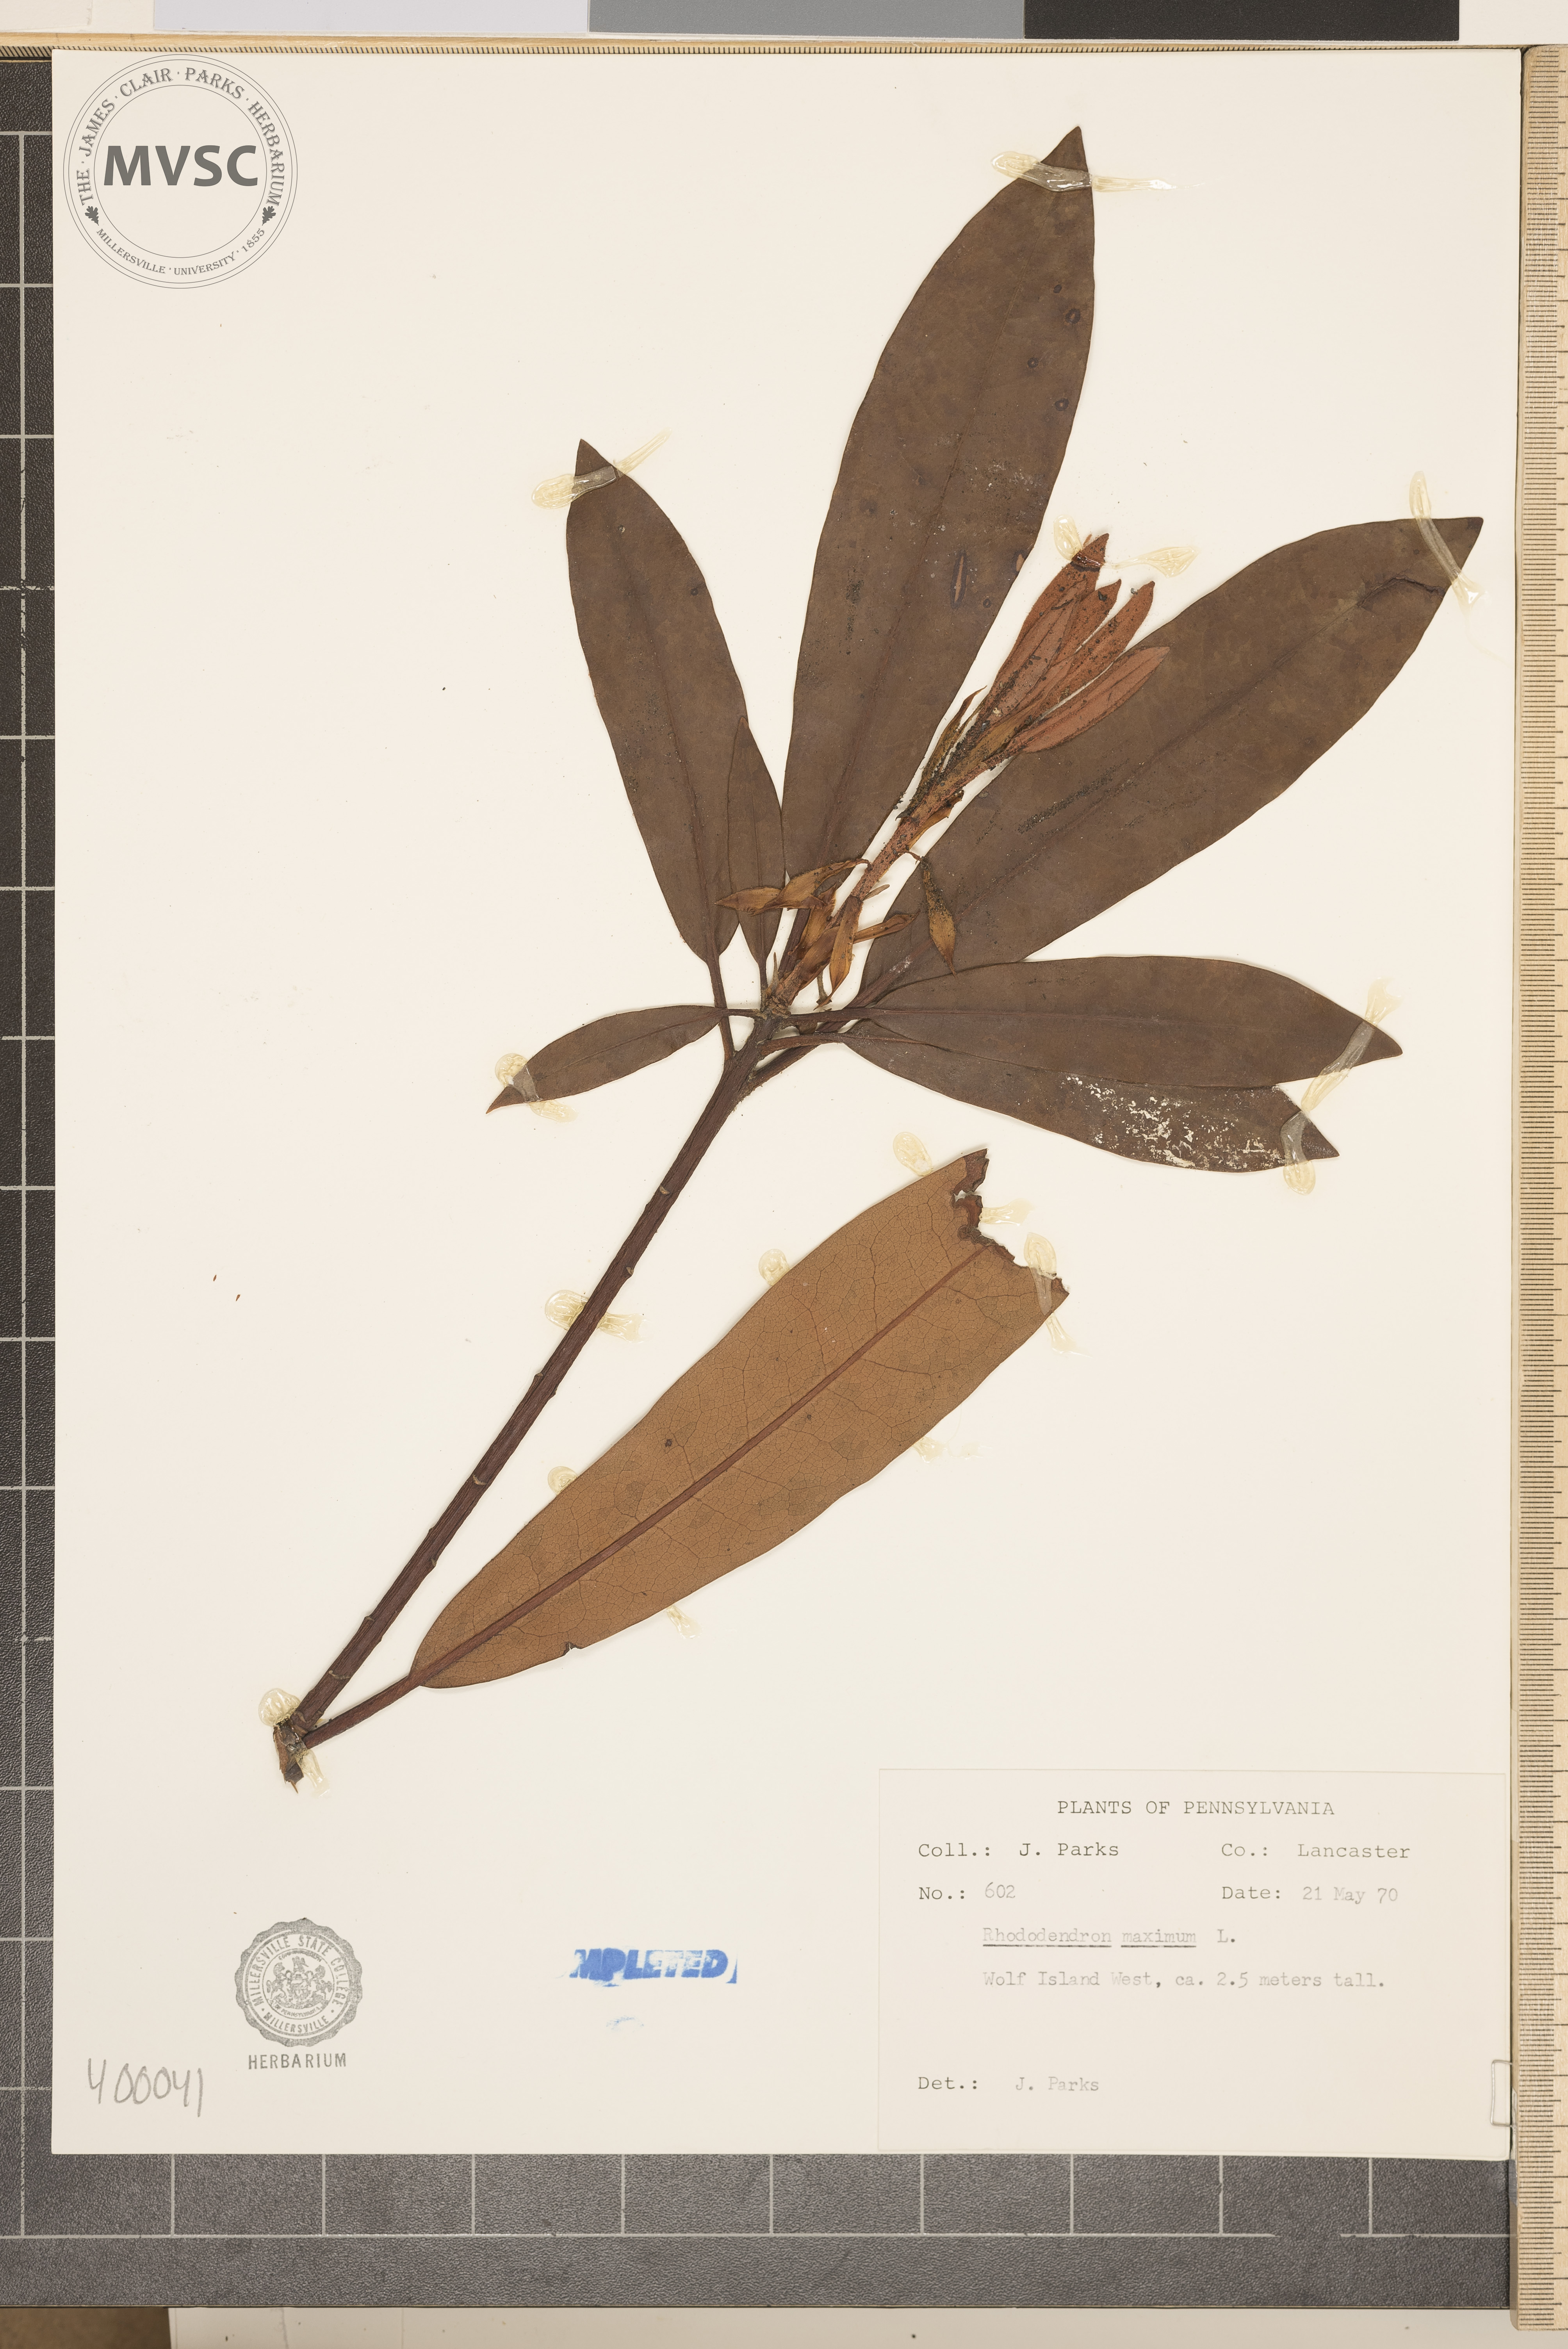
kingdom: Plantae
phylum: Tracheophyta
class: Magnoliopsida
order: Ericales
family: Ericaceae
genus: Rhododendron
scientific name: Rhododendron maximum
